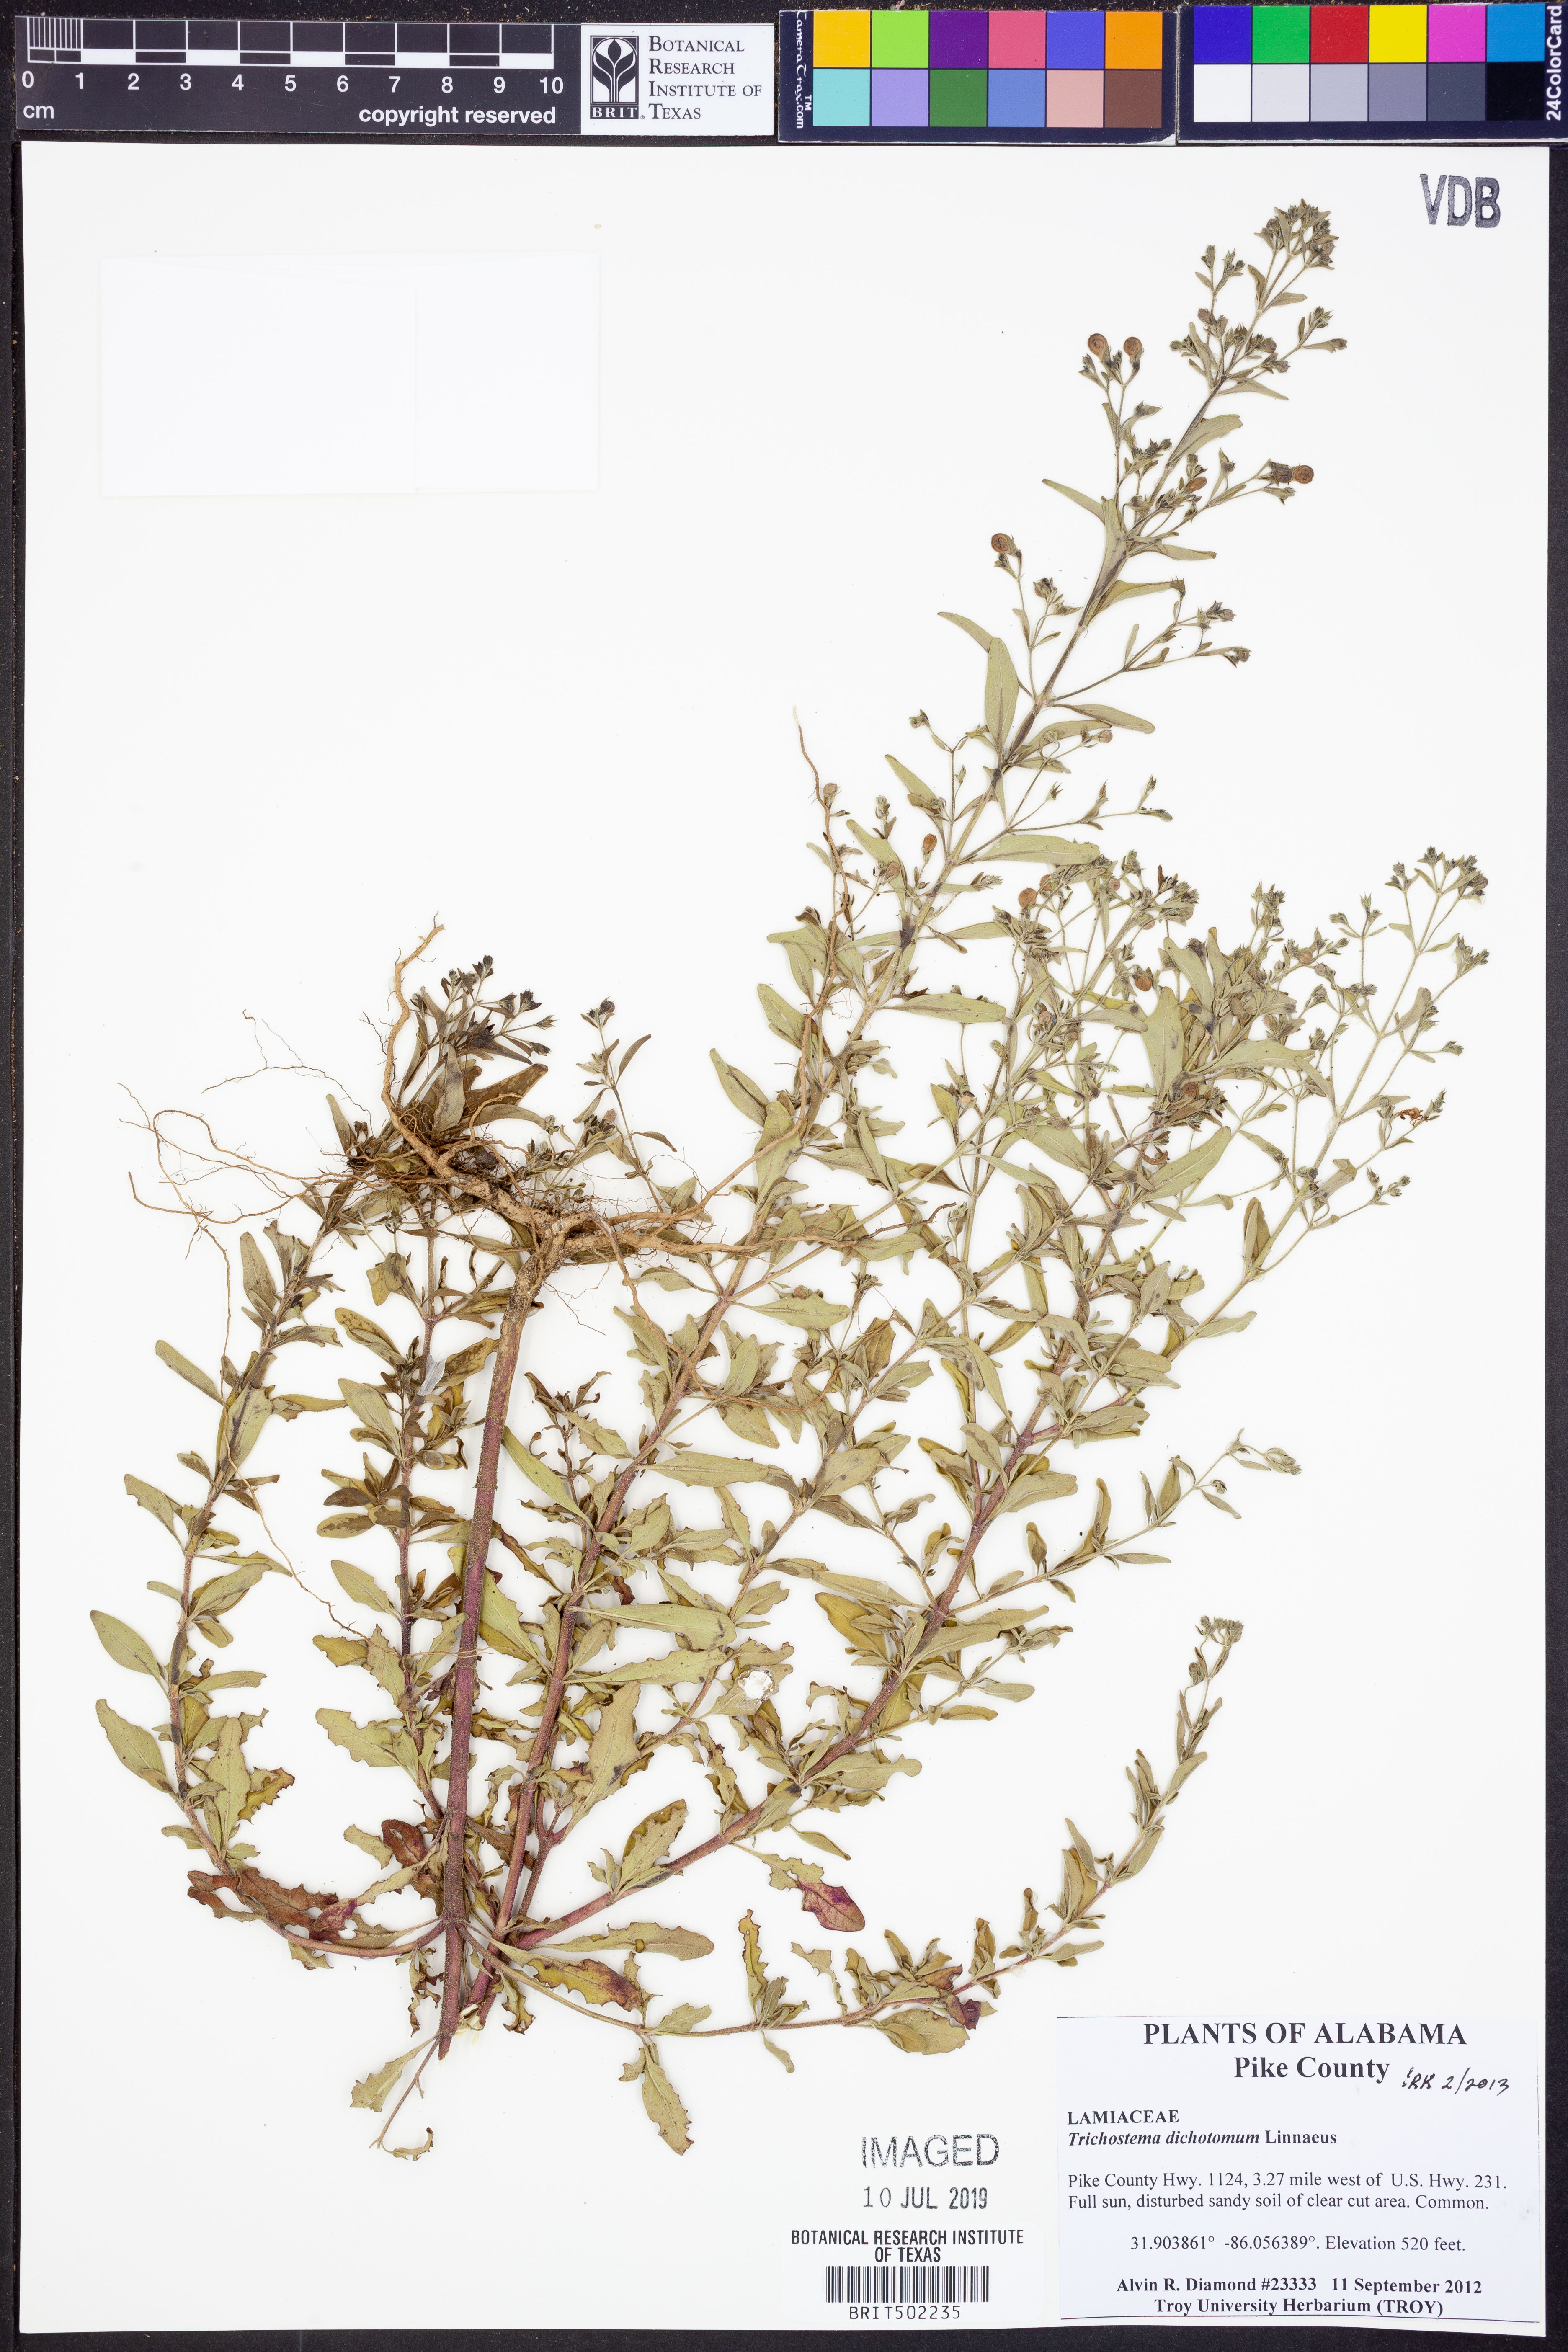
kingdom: Plantae
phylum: Tracheophyta
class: Magnoliopsida
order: Lamiales
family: Lamiaceae
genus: Trichostema
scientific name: Trichostema dichotomum
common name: Bastard pennyroyal
